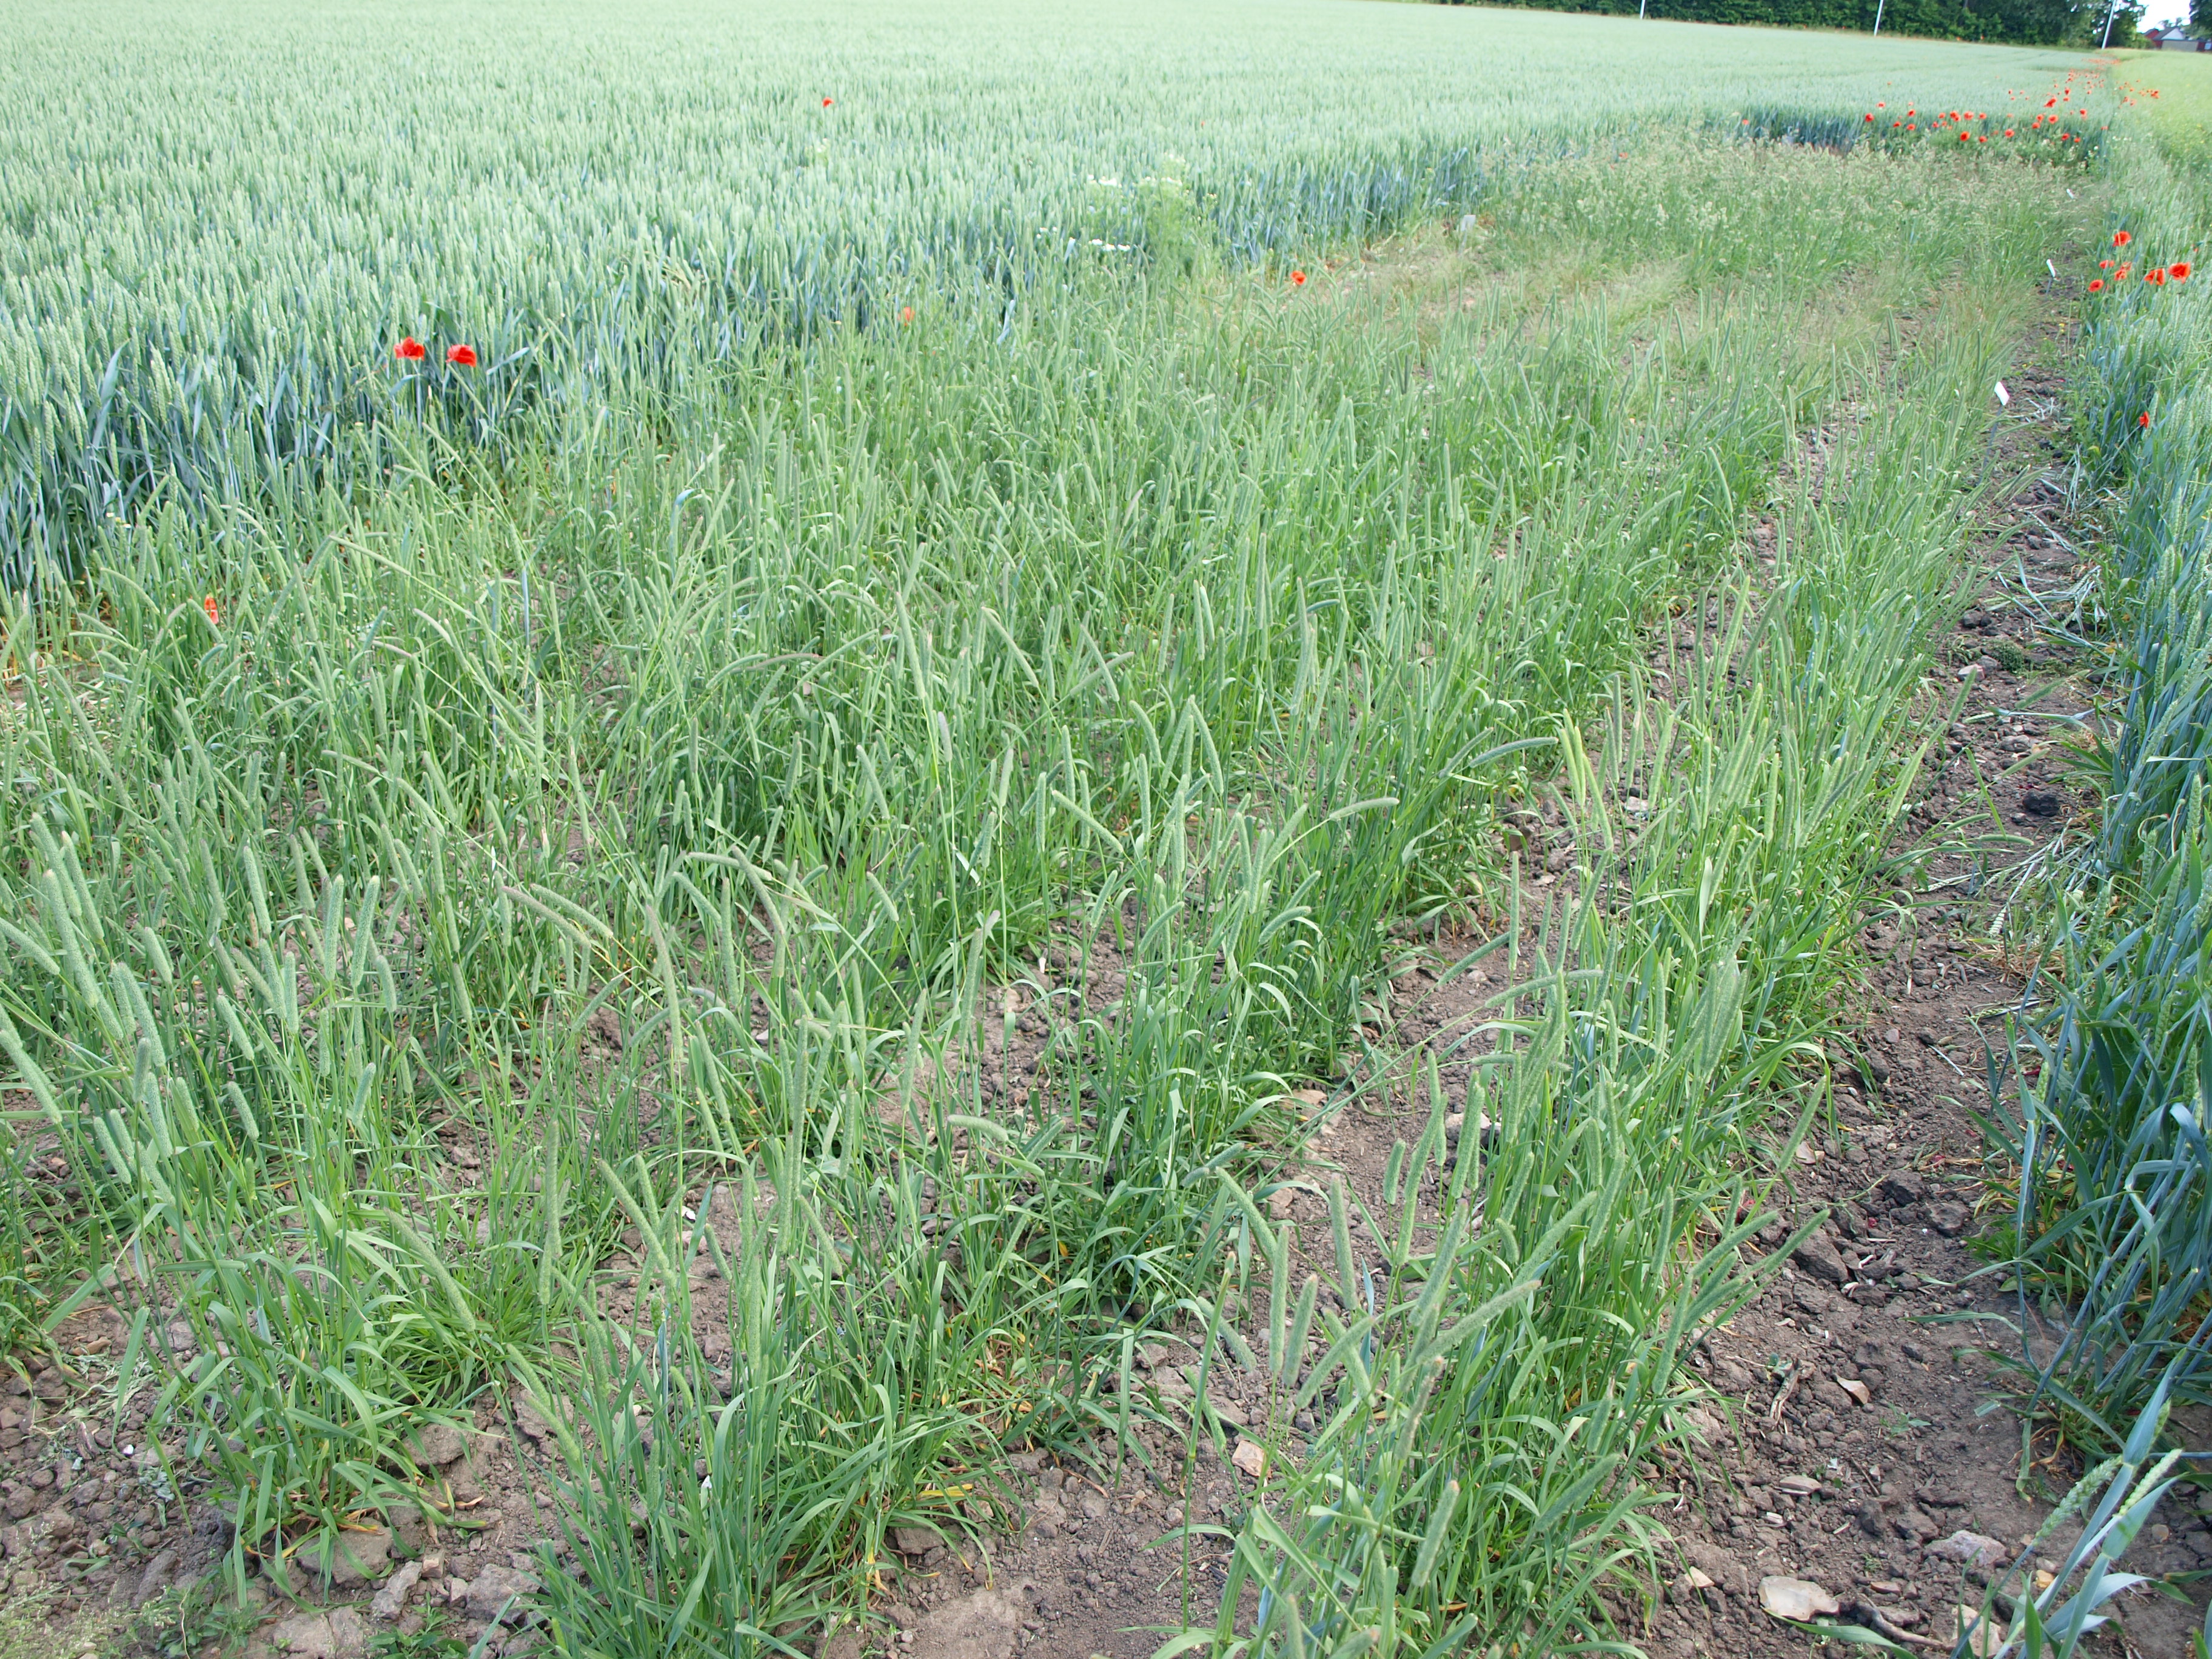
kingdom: Plantae
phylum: Tracheophyta
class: Liliopsida
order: Poales
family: Poaceae
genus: Phleum
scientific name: Phleum pratense
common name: Timothy grass
